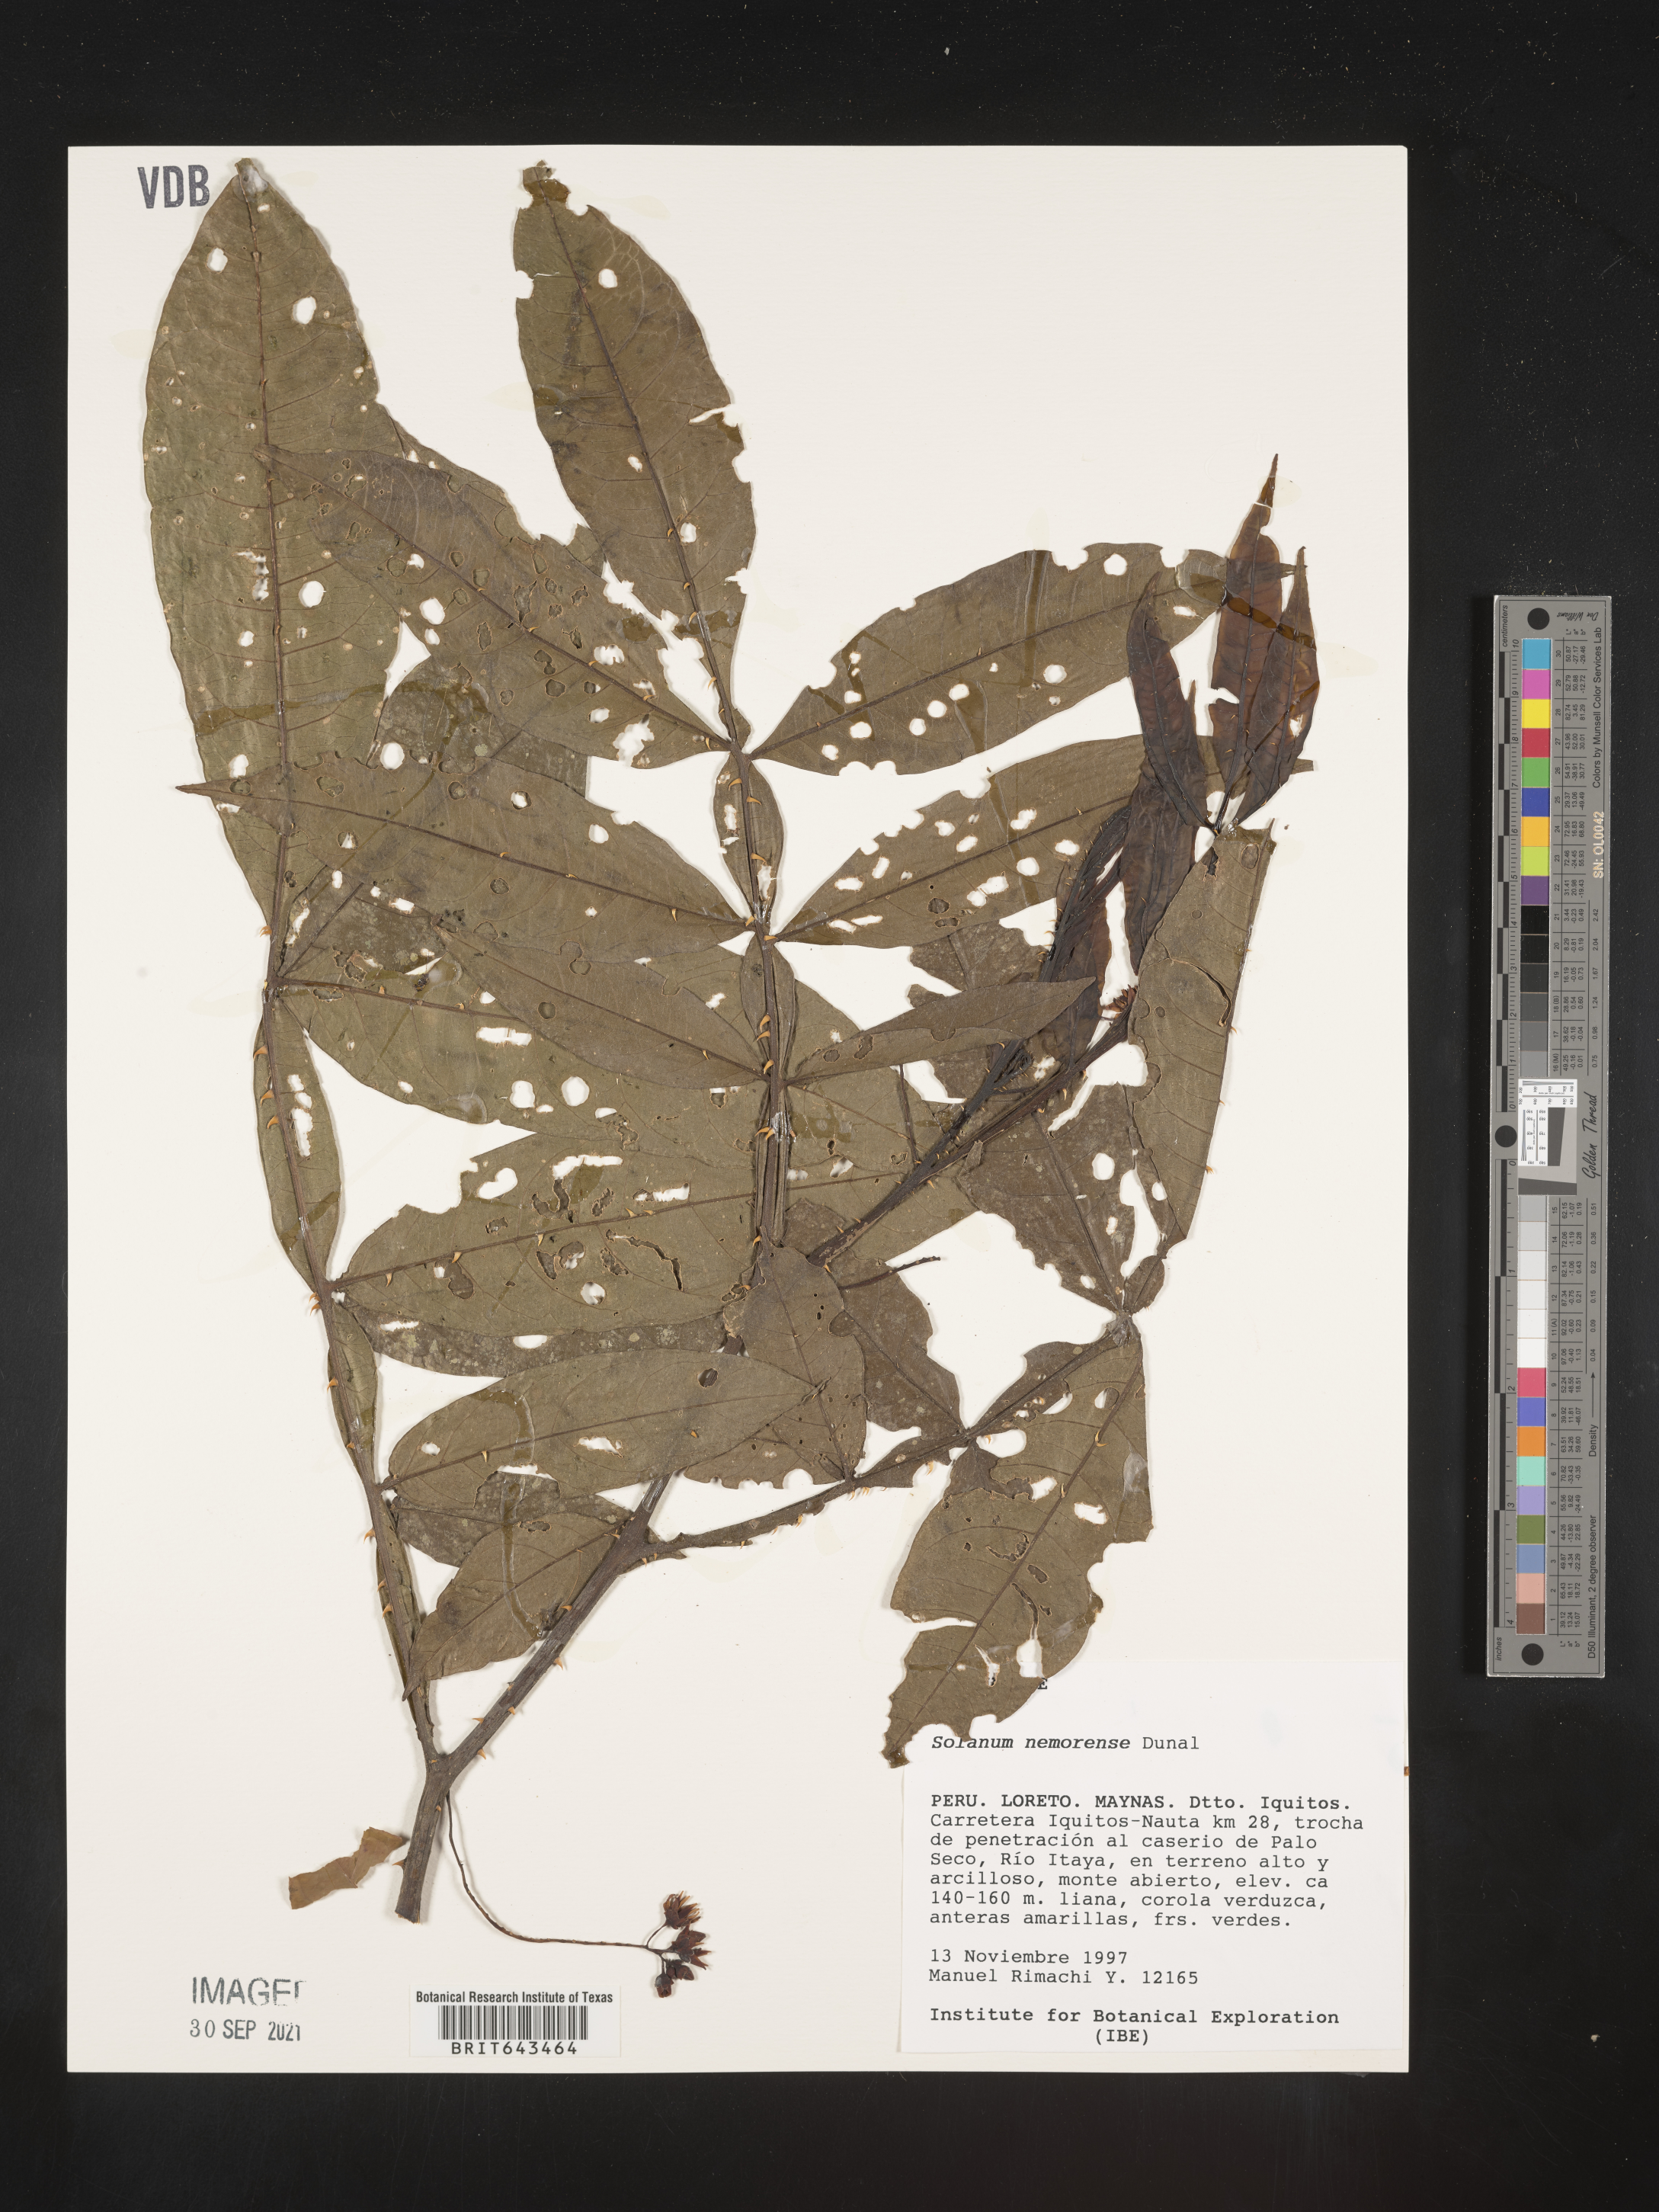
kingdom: Plantae
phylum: Tracheophyta
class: Magnoliopsida
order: Solanales
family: Solanaceae
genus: Solanum
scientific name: Solanum
